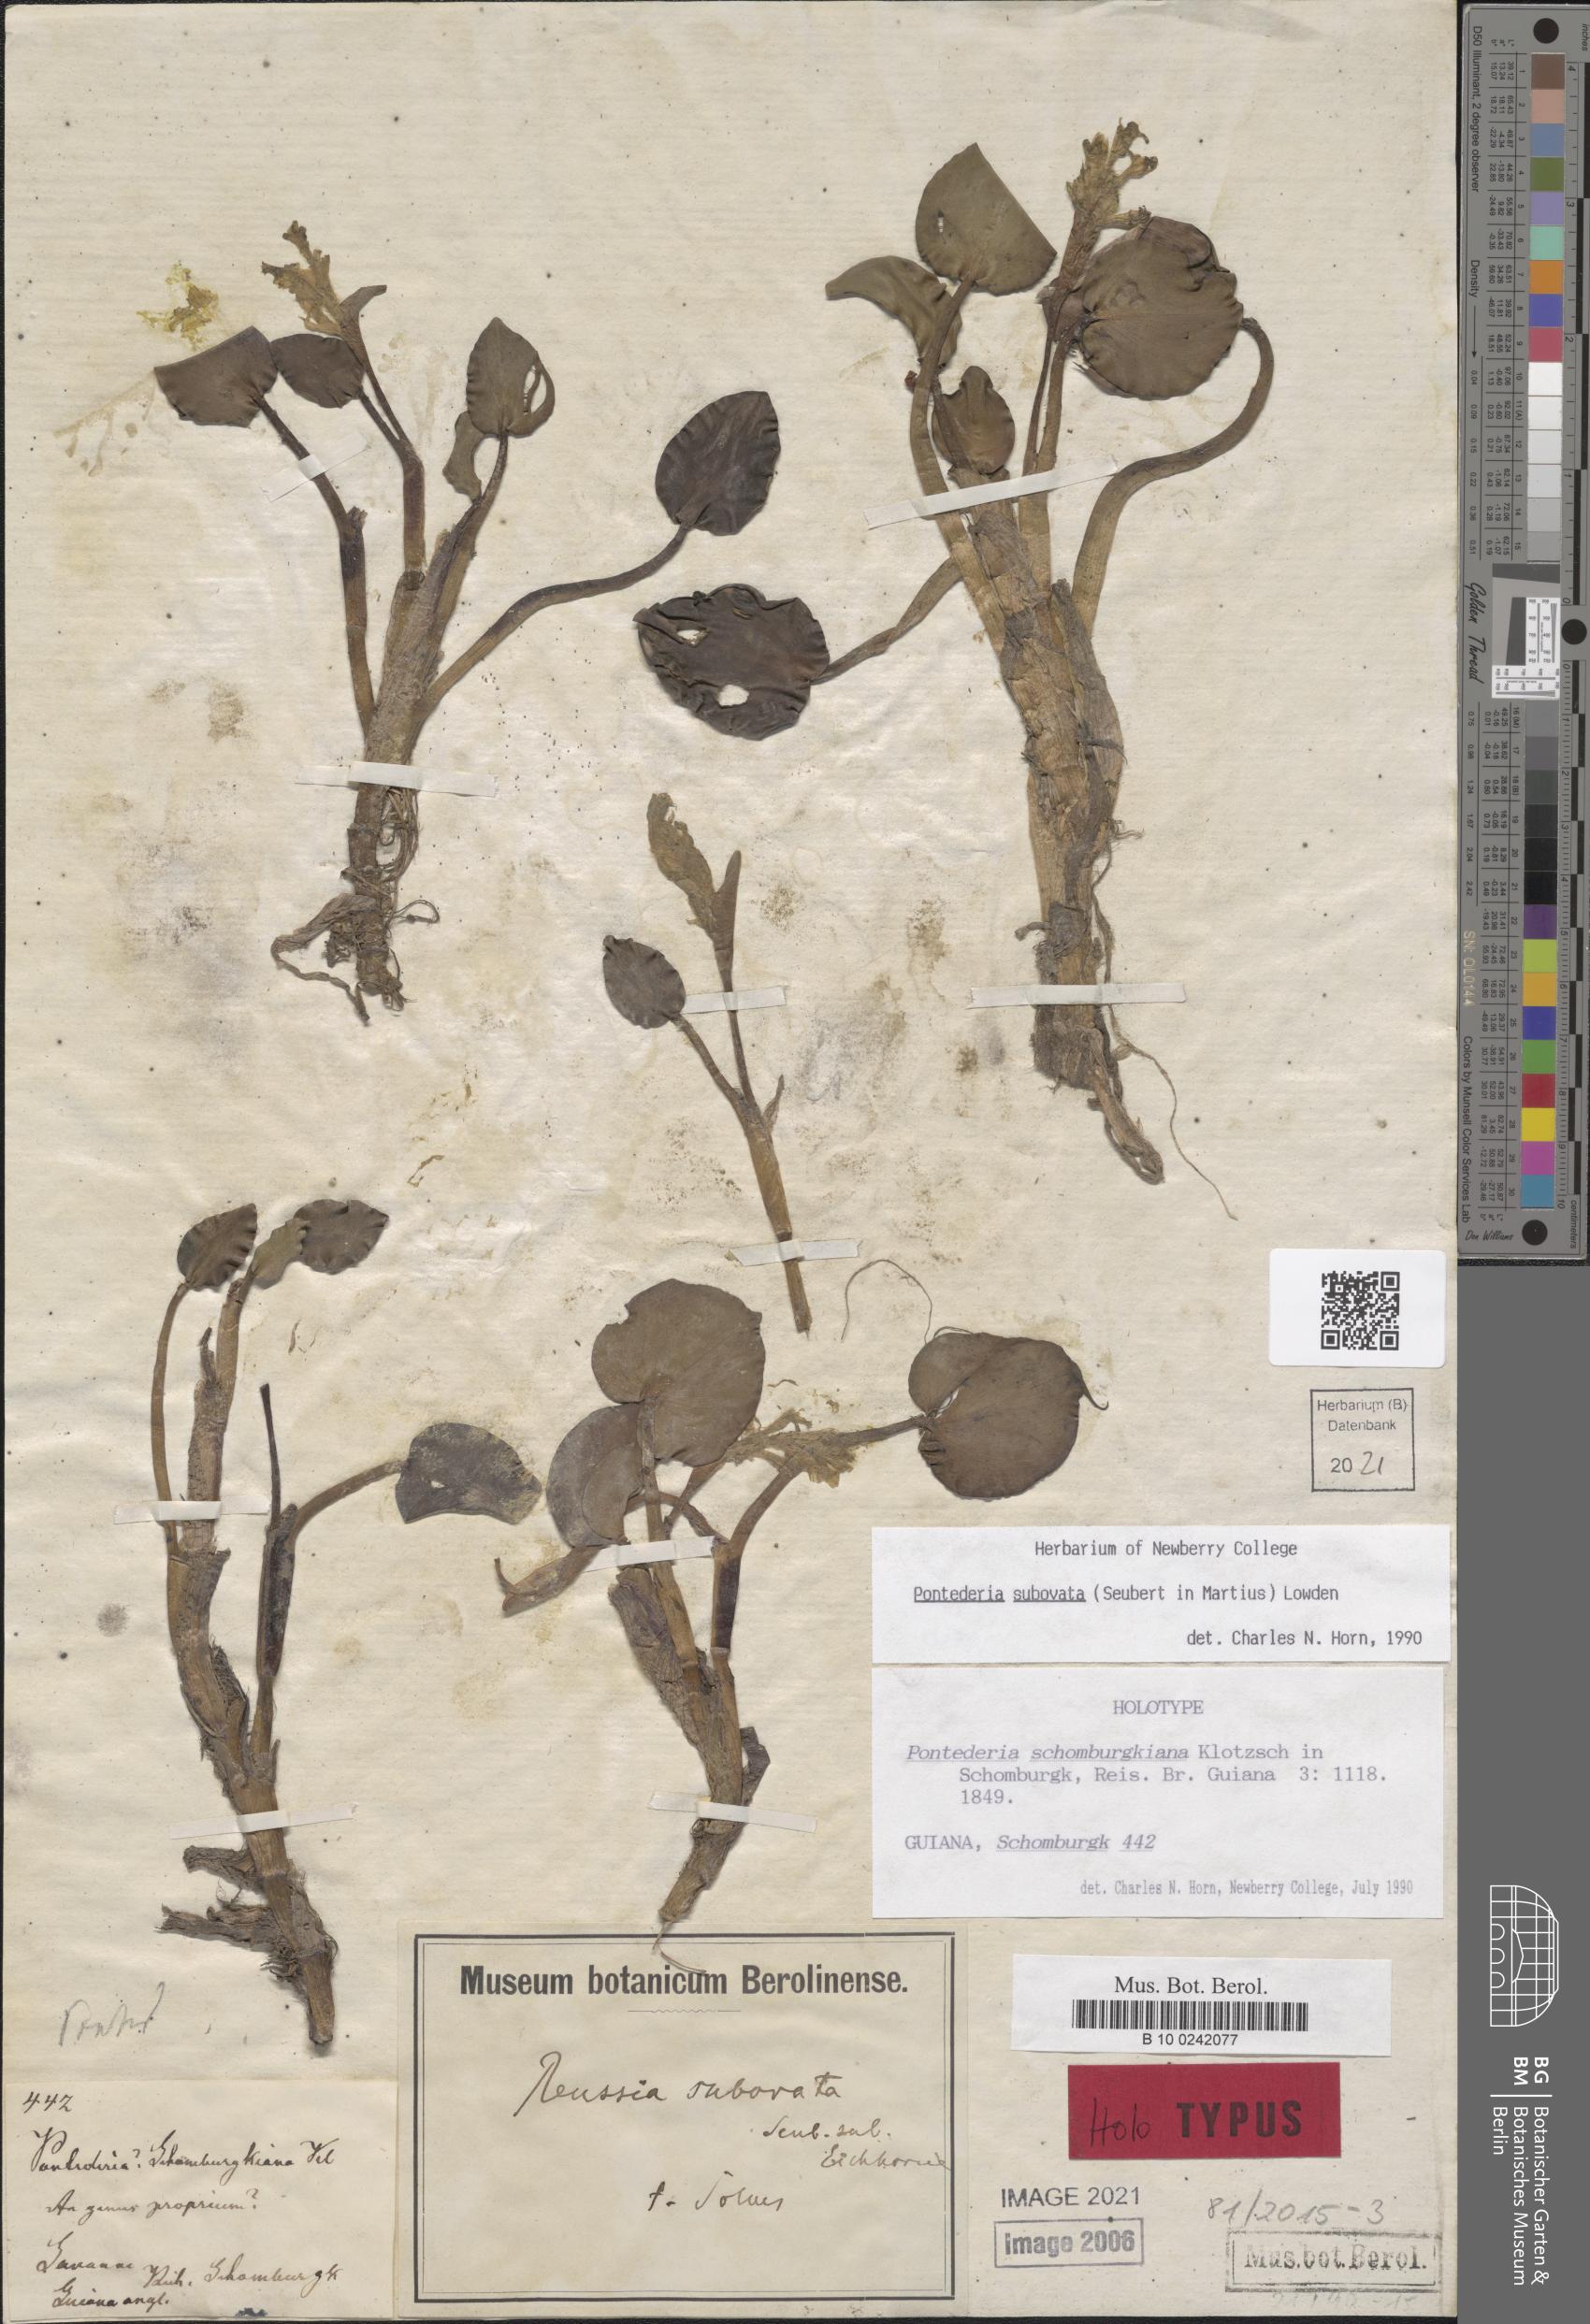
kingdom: Plantae
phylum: Tracheophyta
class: Liliopsida
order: Commelinales
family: Pontederiaceae
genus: Pontederia
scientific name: Pontederia subovata
